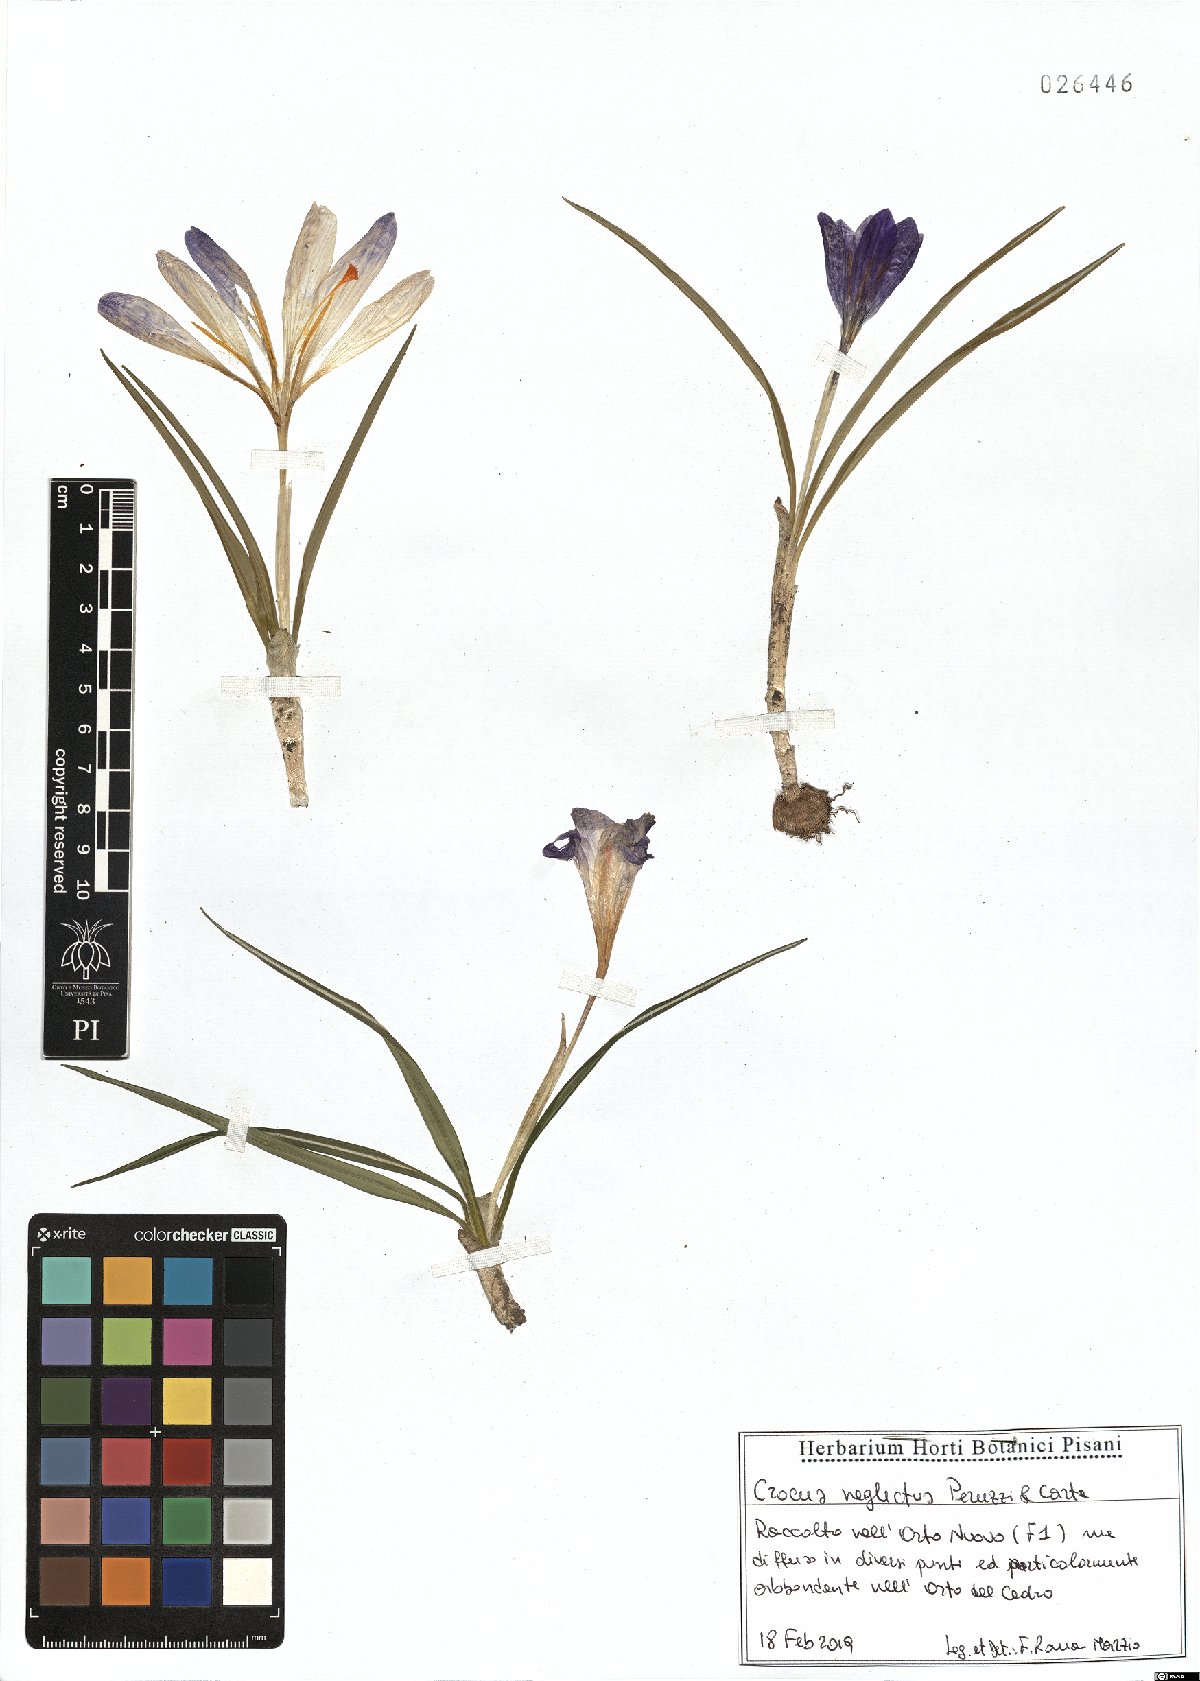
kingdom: Plantae
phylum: Tracheophyta
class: Liliopsida
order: Asparagales
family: Iridaceae
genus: Crocus
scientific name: Crocus neglectus
